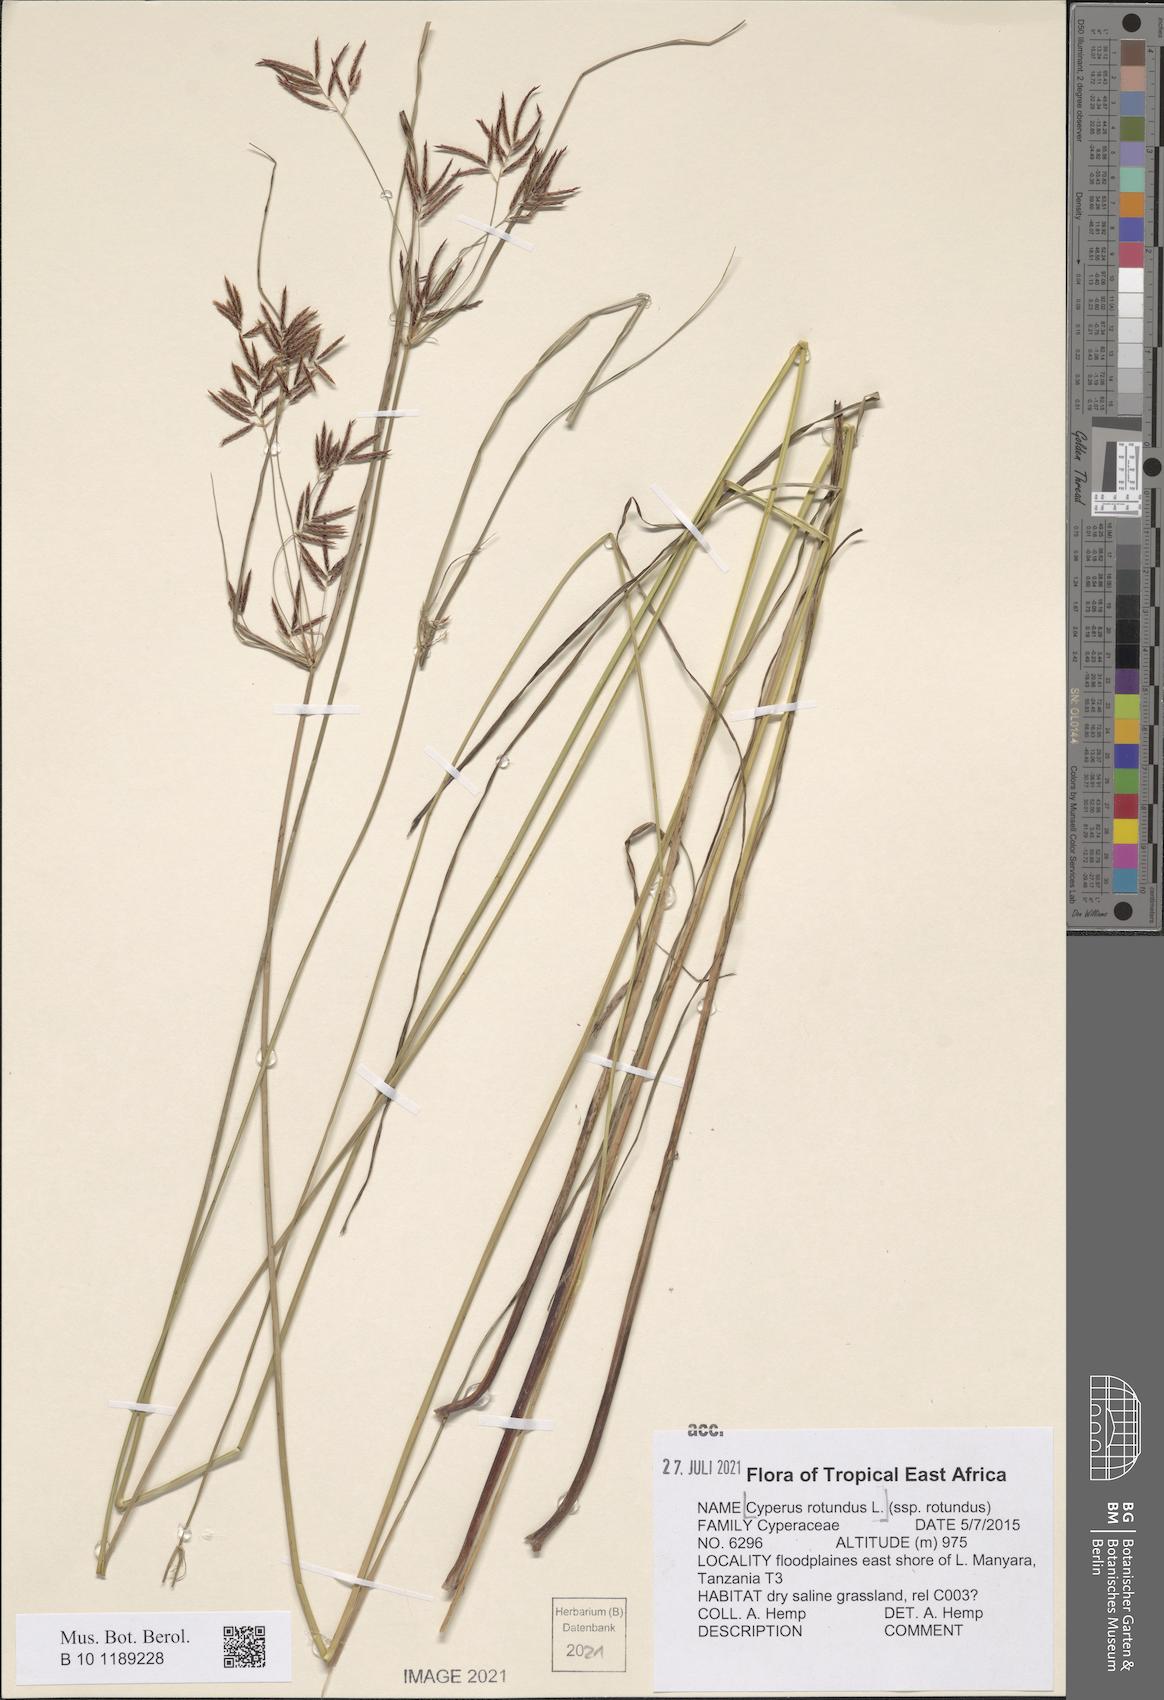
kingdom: Plantae
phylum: Tracheophyta
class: Liliopsida
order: Poales
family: Cyperaceae
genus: Cyperus
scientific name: Cyperus rotundus
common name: Nutgrass
